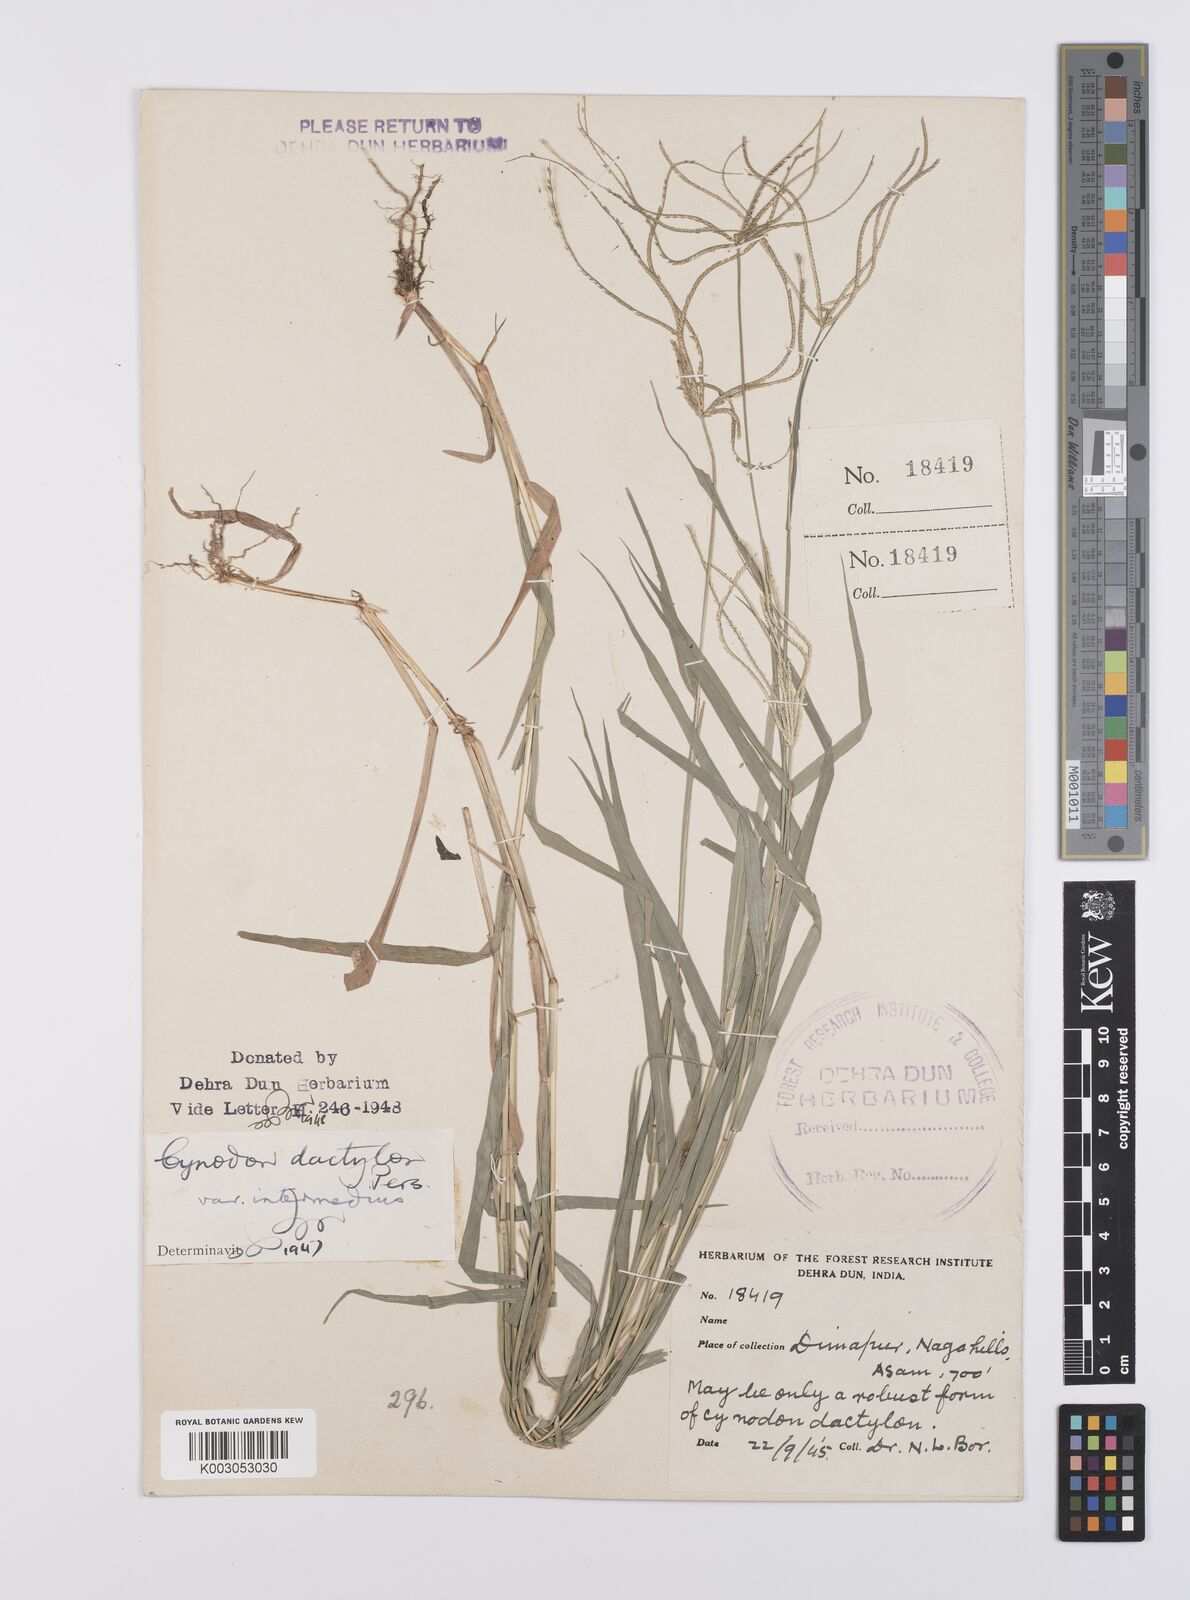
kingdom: Plantae
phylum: Tracheophyta
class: Liliopsida
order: Poales
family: Poaceae
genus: Cynodon
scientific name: Cynodon radiatus
